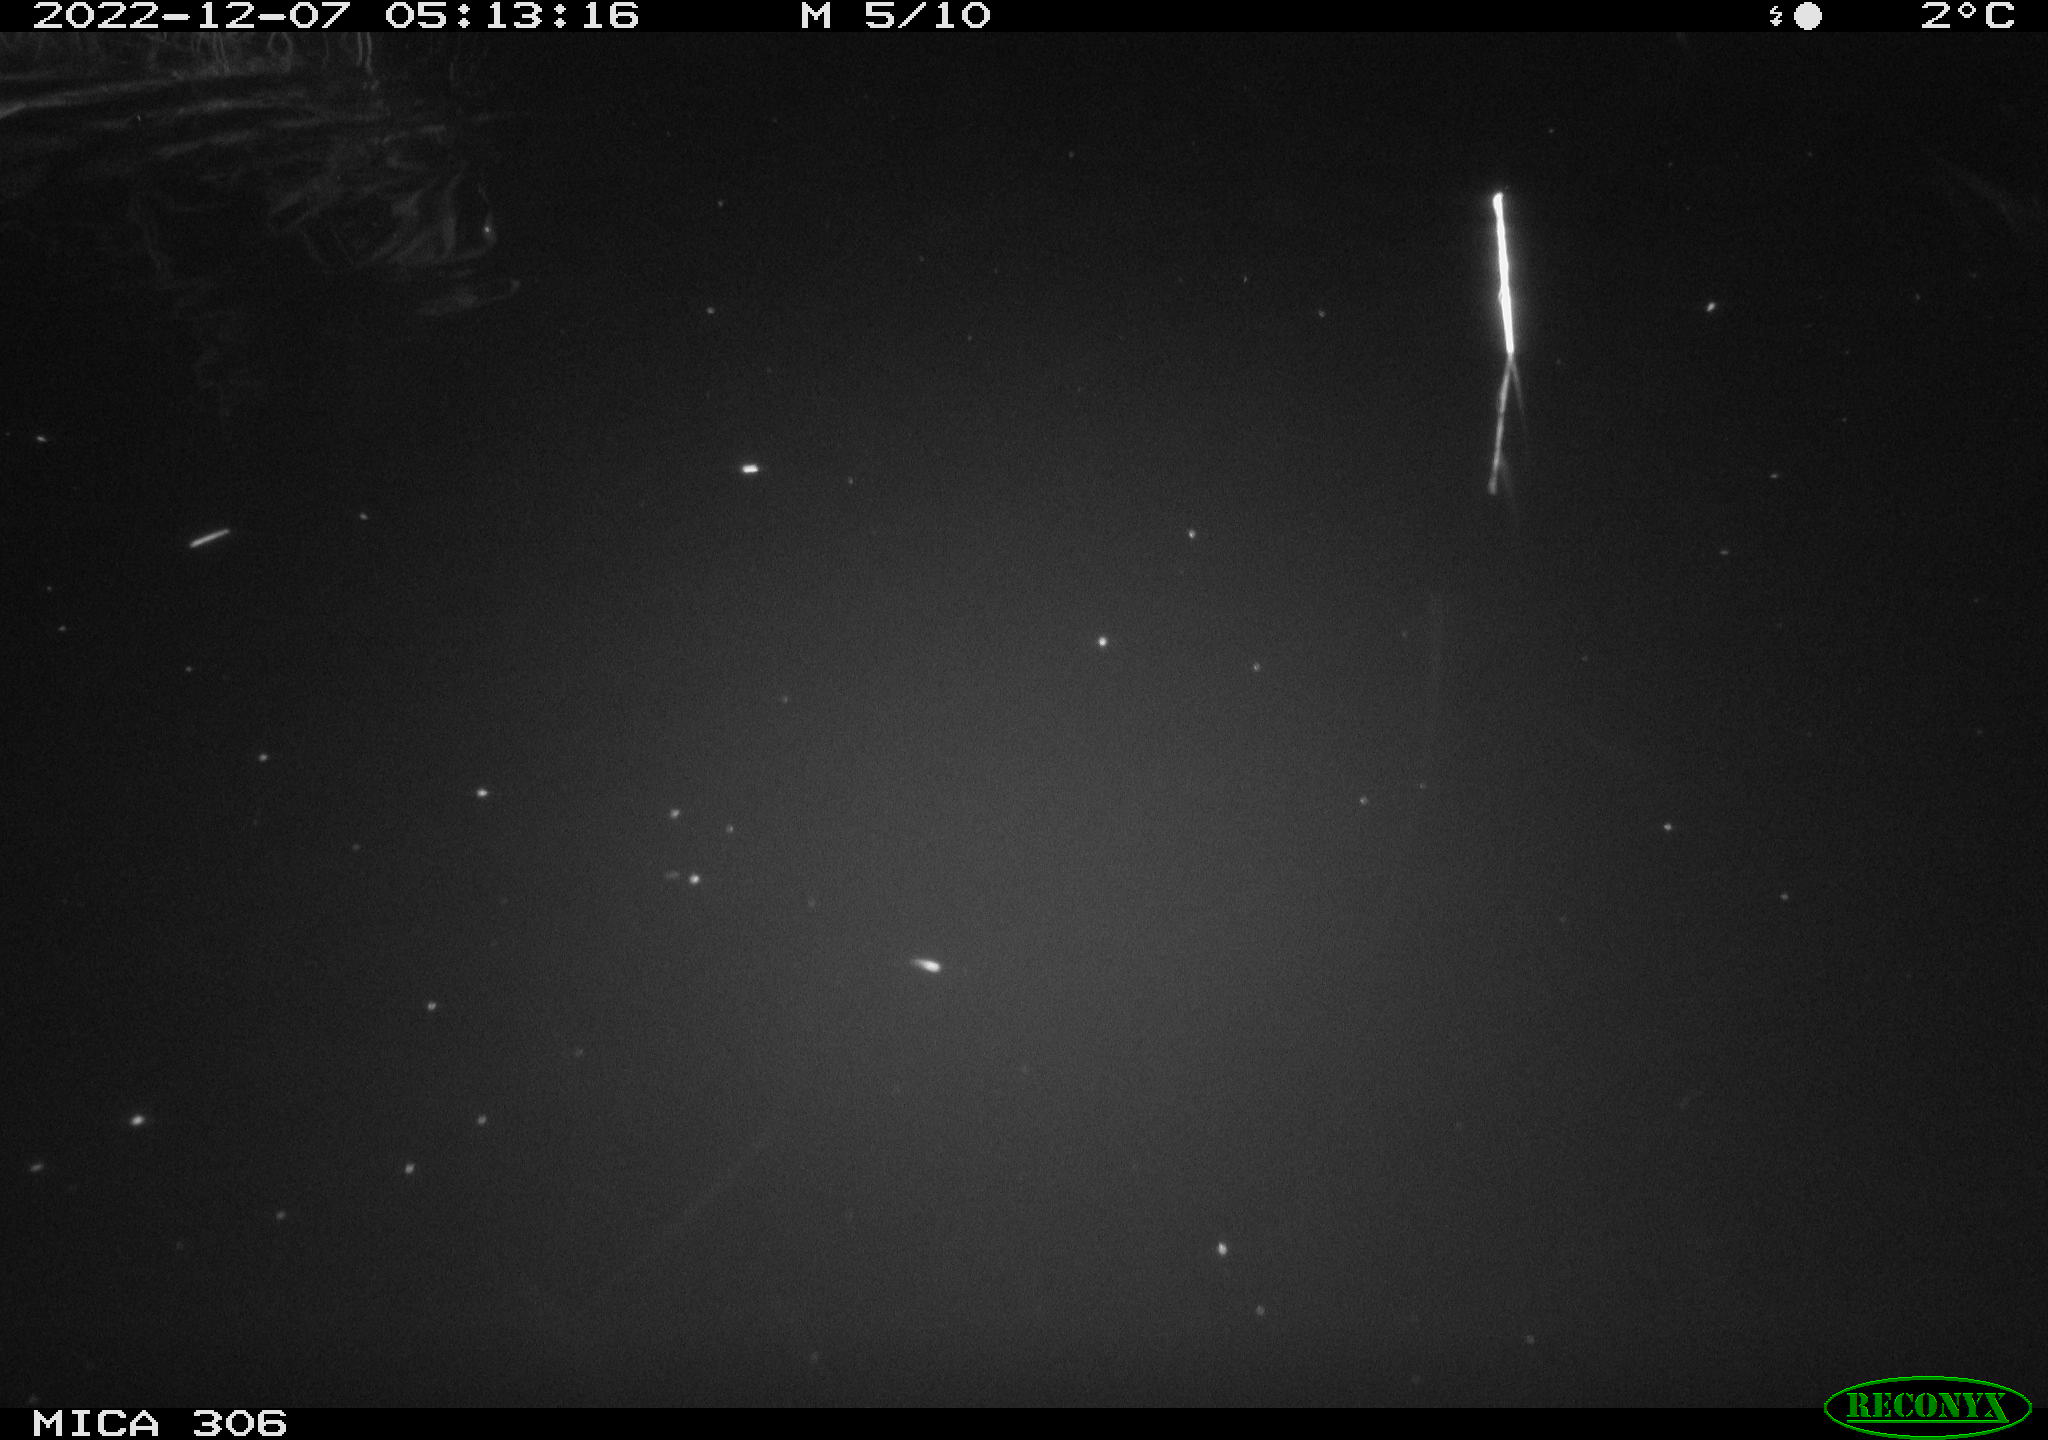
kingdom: Animalia
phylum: Chordata
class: Mammalia
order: Rodentia
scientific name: Rodentia
